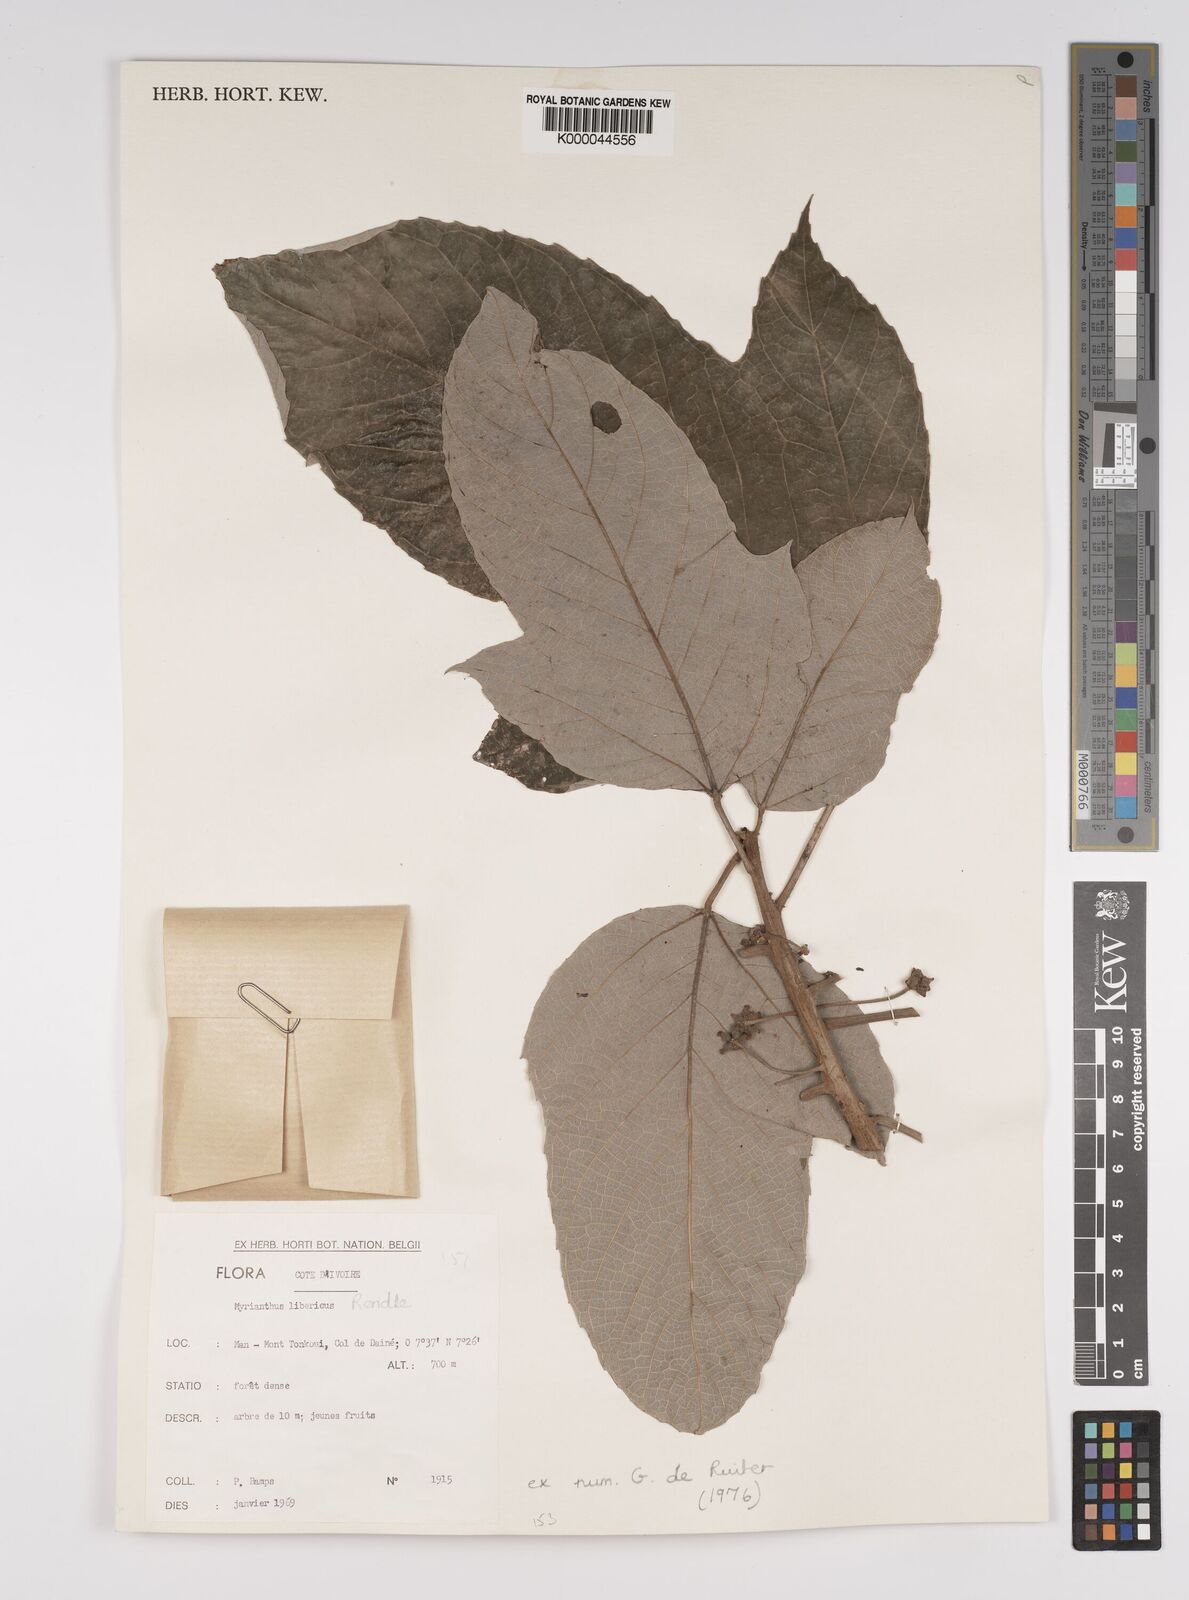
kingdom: Plantae
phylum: Tracheophyta
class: Magnoliopsida
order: Rosales
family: Urticaceae
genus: Myrianthus
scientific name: Myrianthus libericus
